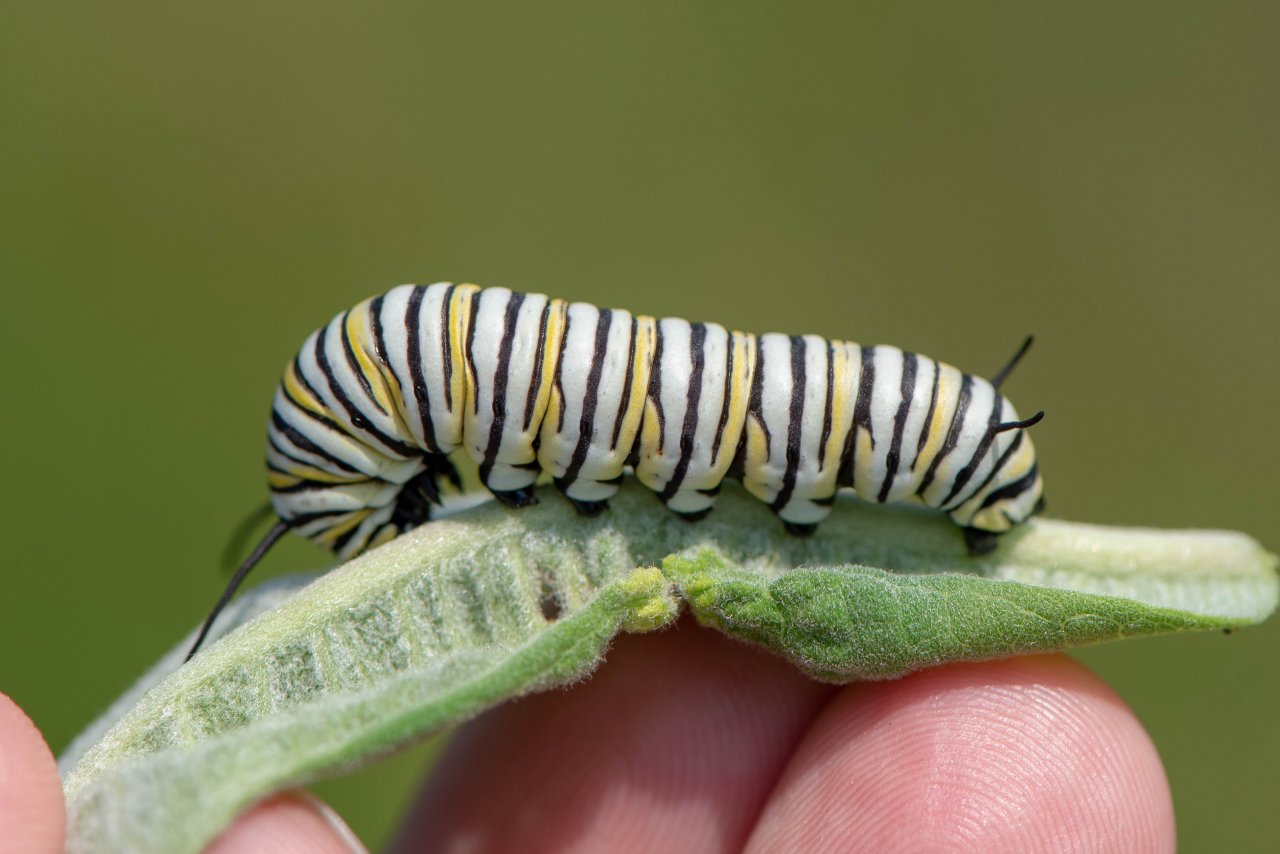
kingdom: Animalia
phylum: Arthropoda
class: Insecta
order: Lepidoptera
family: Nymphalidae
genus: Danaus
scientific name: Danaus plexippus
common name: Monarch
